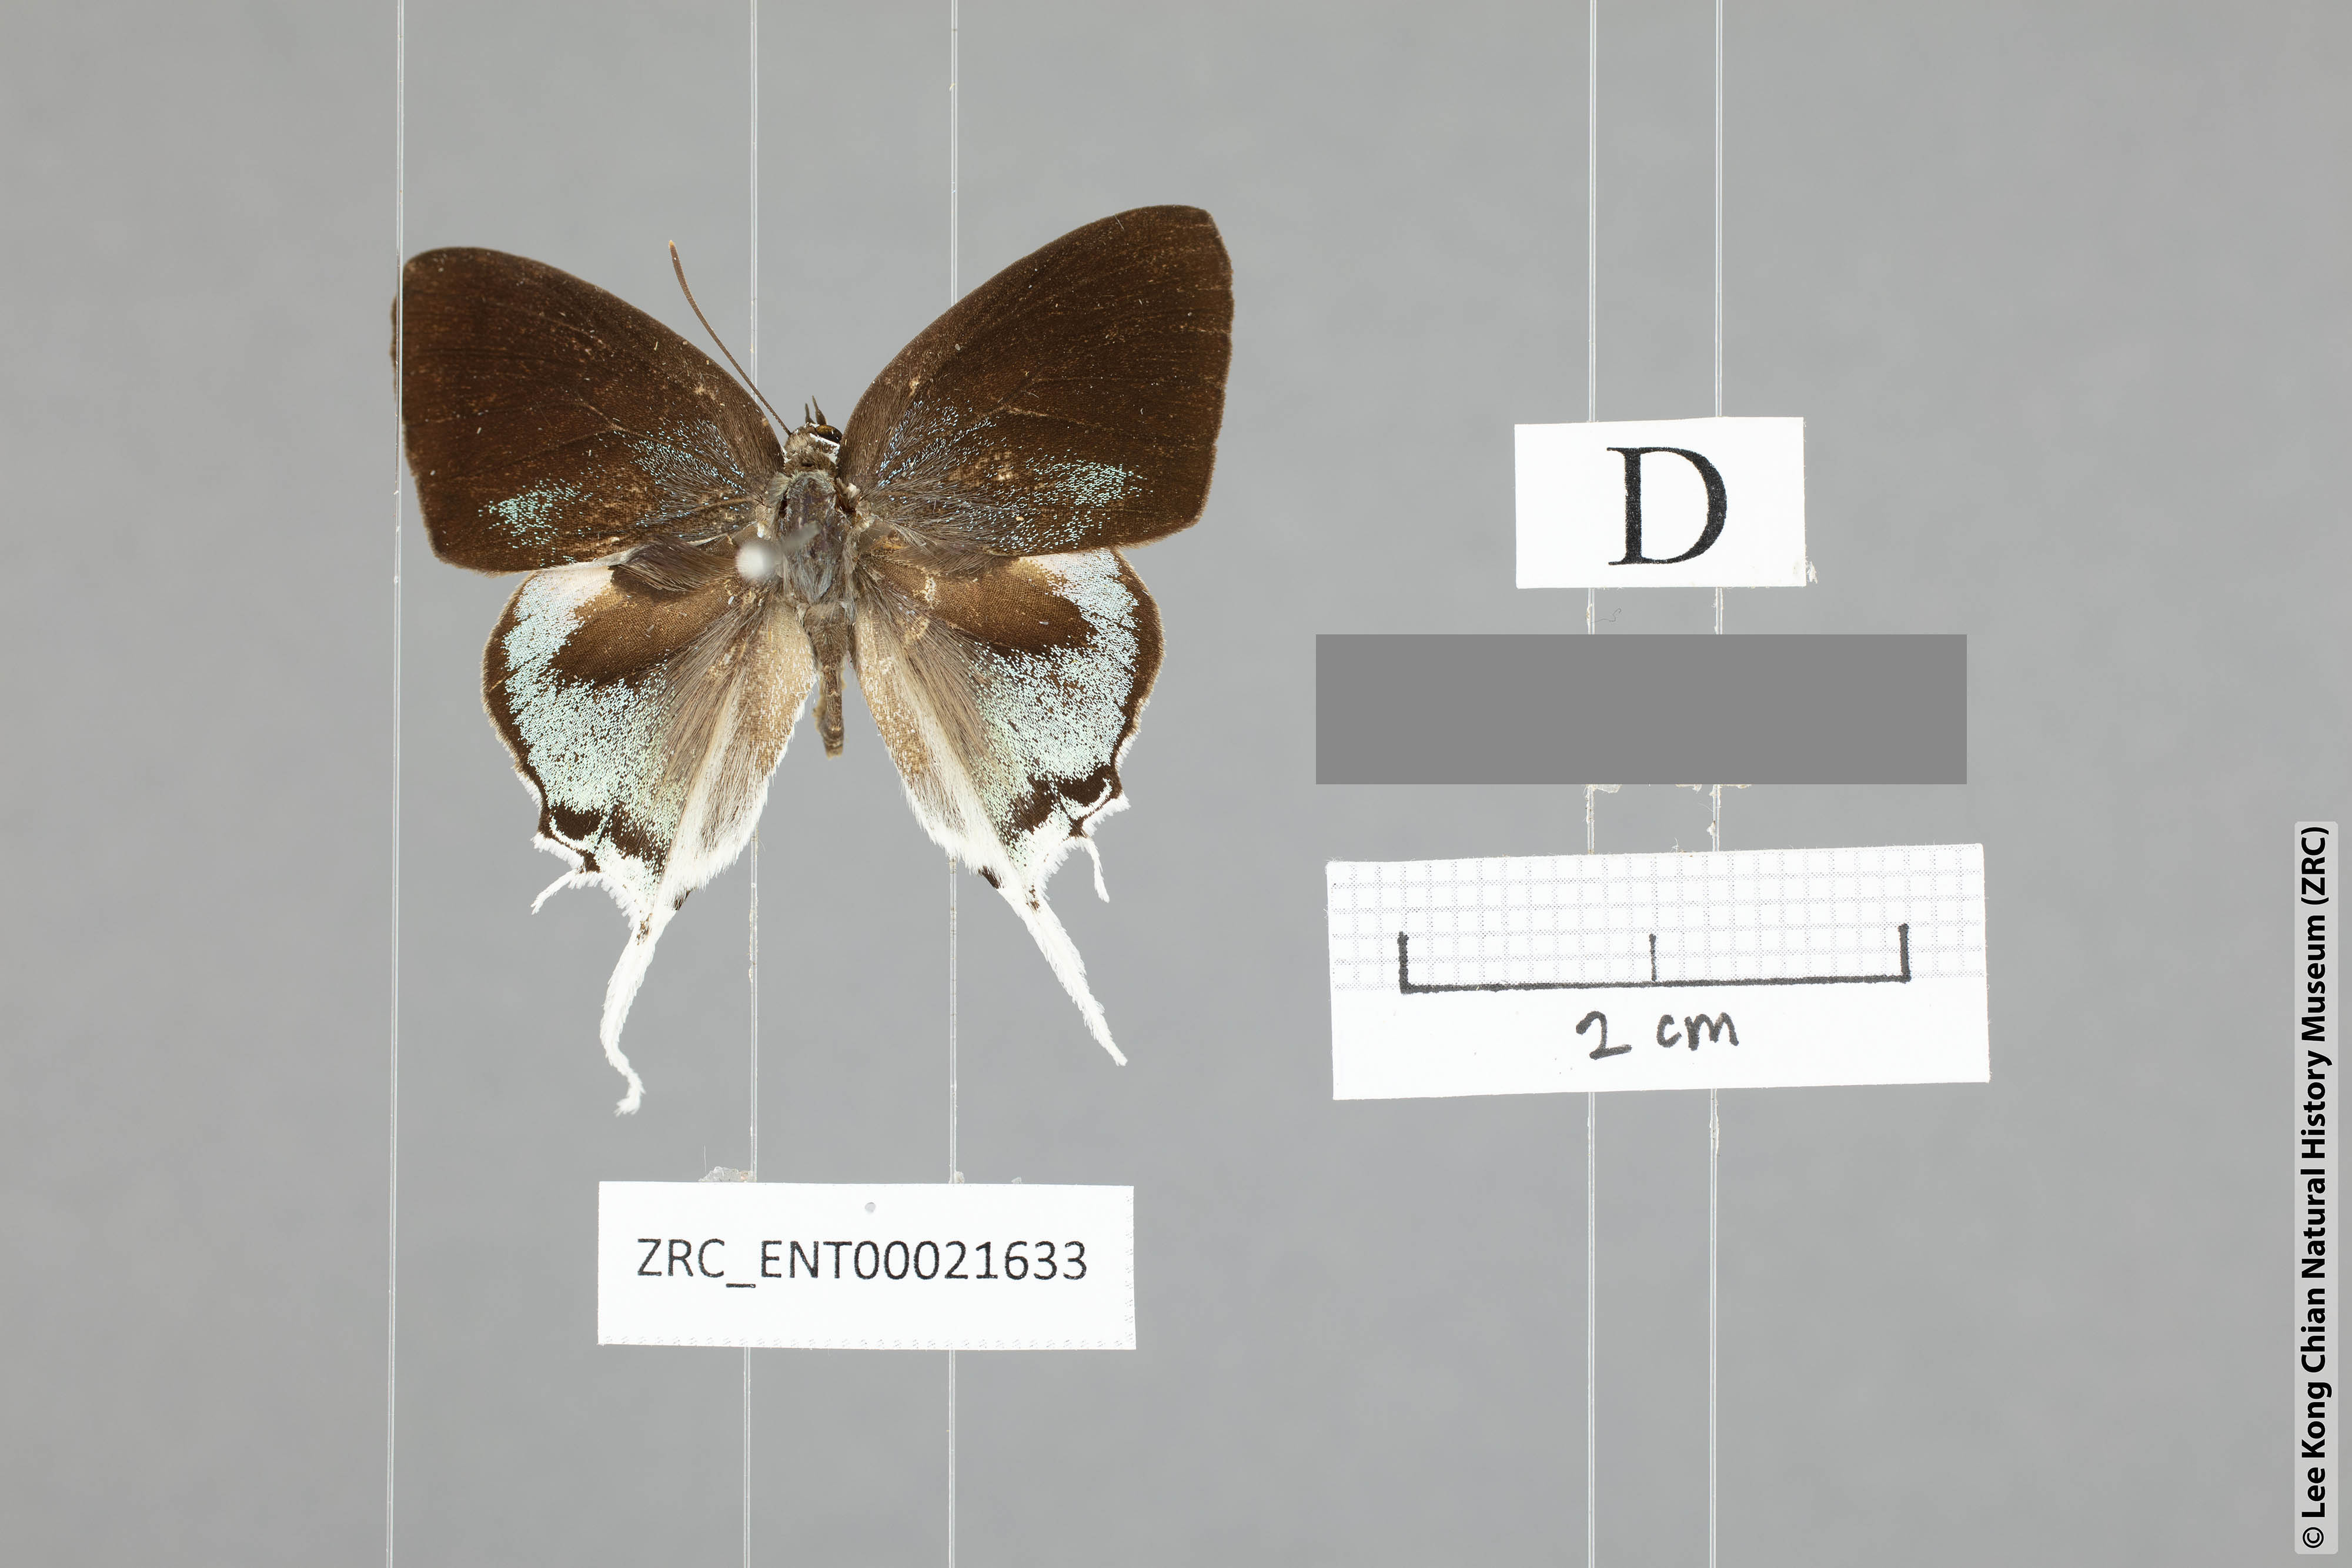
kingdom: Animalia
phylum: Arthropoda
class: Insecta
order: Lepidoptera
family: Lycaenidae
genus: Manto
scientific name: Manto hypoleuca
